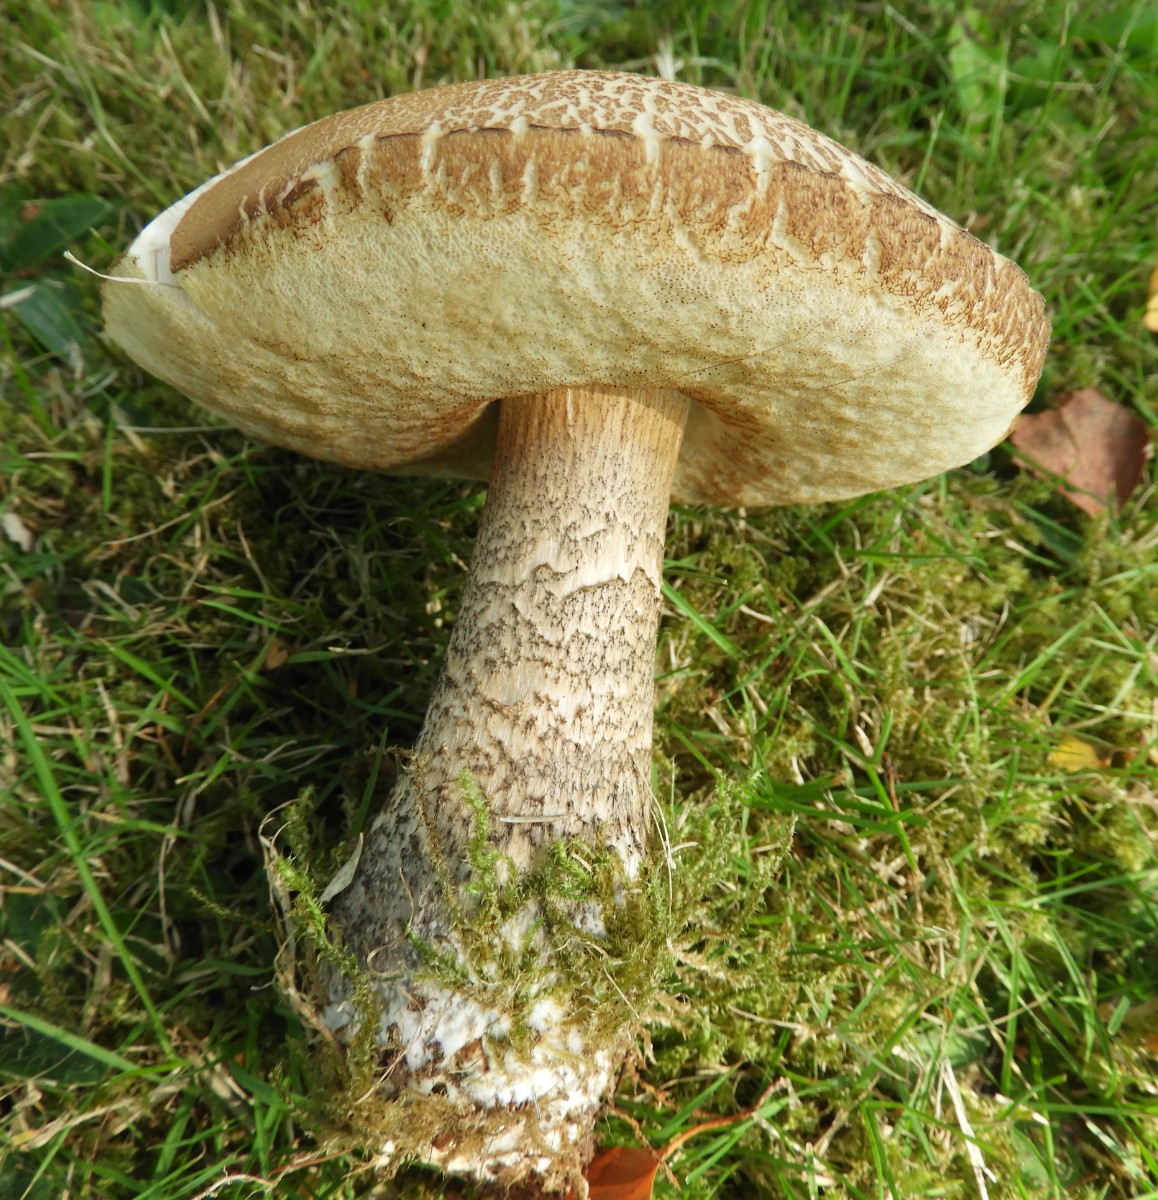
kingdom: Fungi
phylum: Basidiomycota
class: Agaricomycetes
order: Boletales
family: Boletaceae
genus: Leccinum
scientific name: Leccinum scabrum
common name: brun skælrørhat
